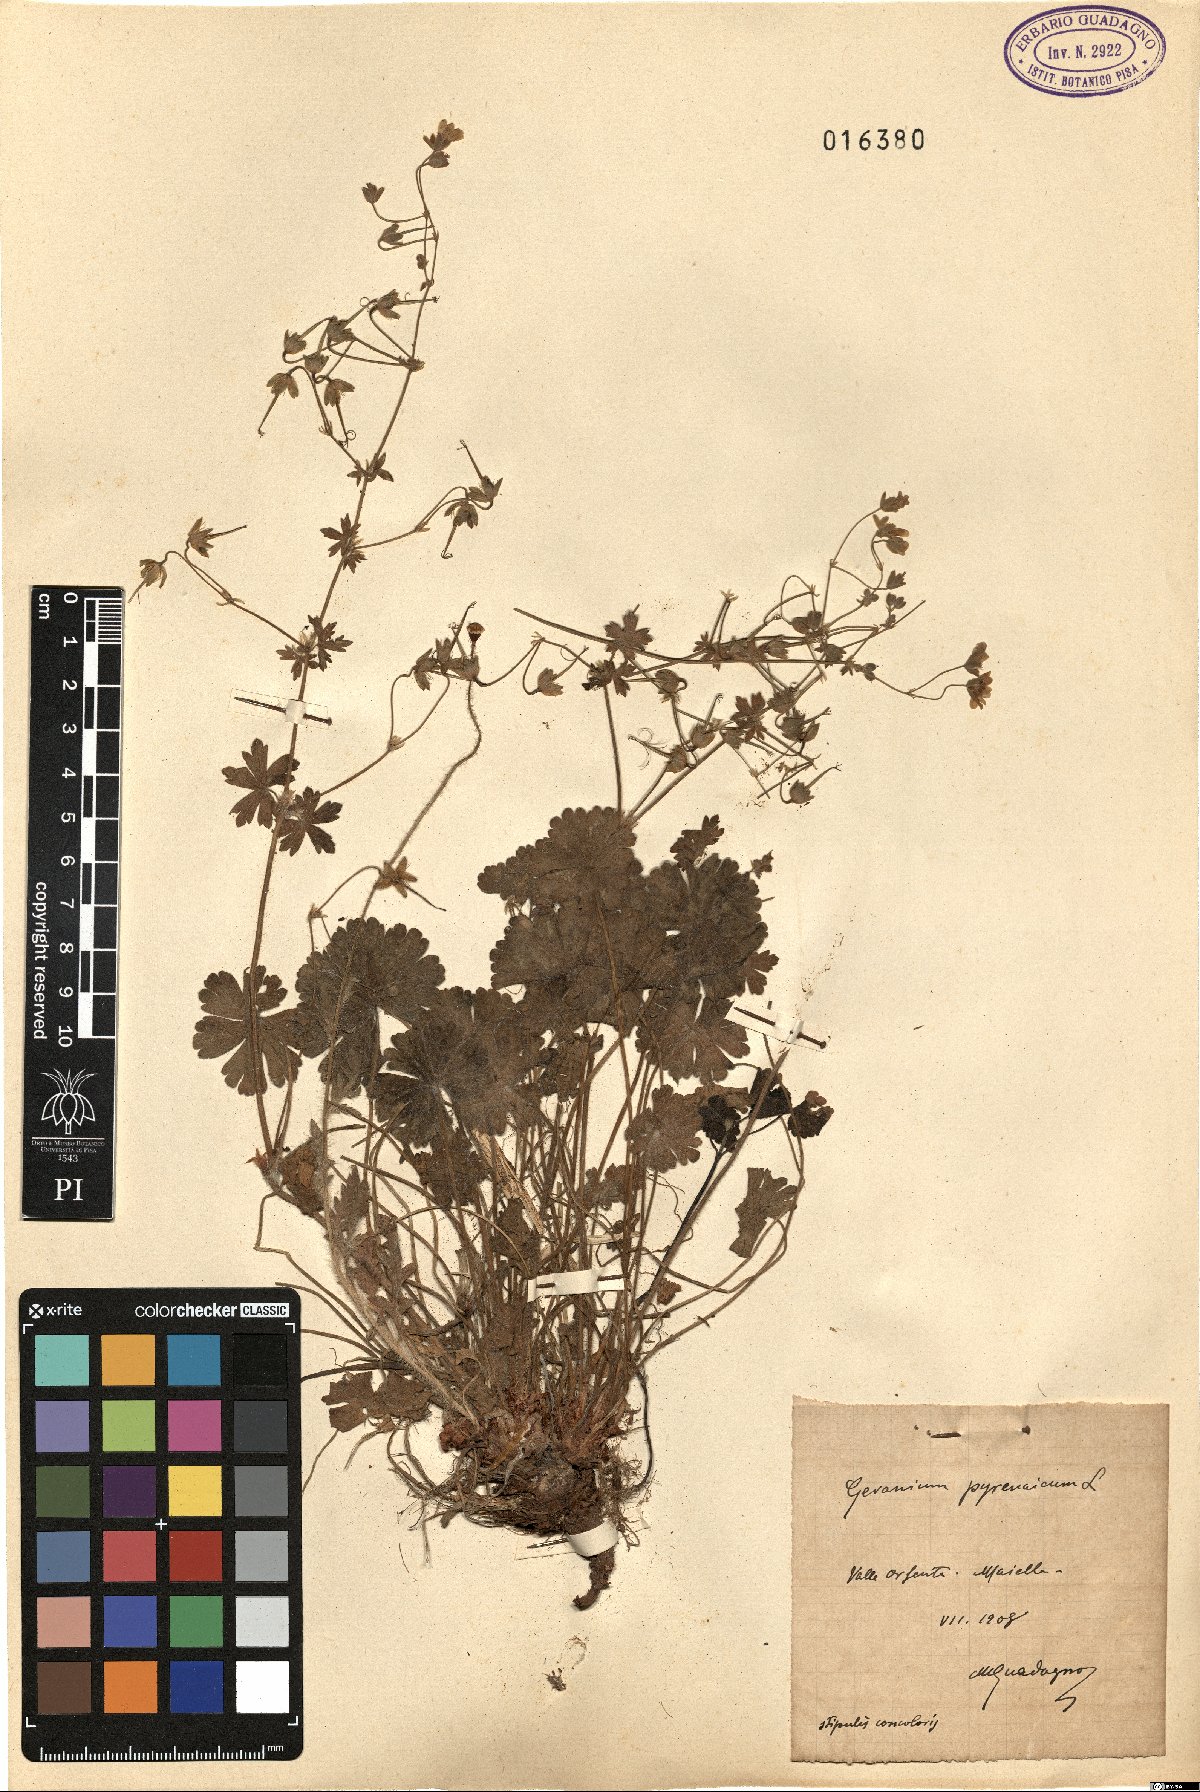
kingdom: Plantae
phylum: Tracheophyta
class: Magnoliopsida
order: Geraniales
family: Geraniaceae
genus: Geranium
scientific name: Geranium pyrenaicum
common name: Hedgerow crane's-bill
